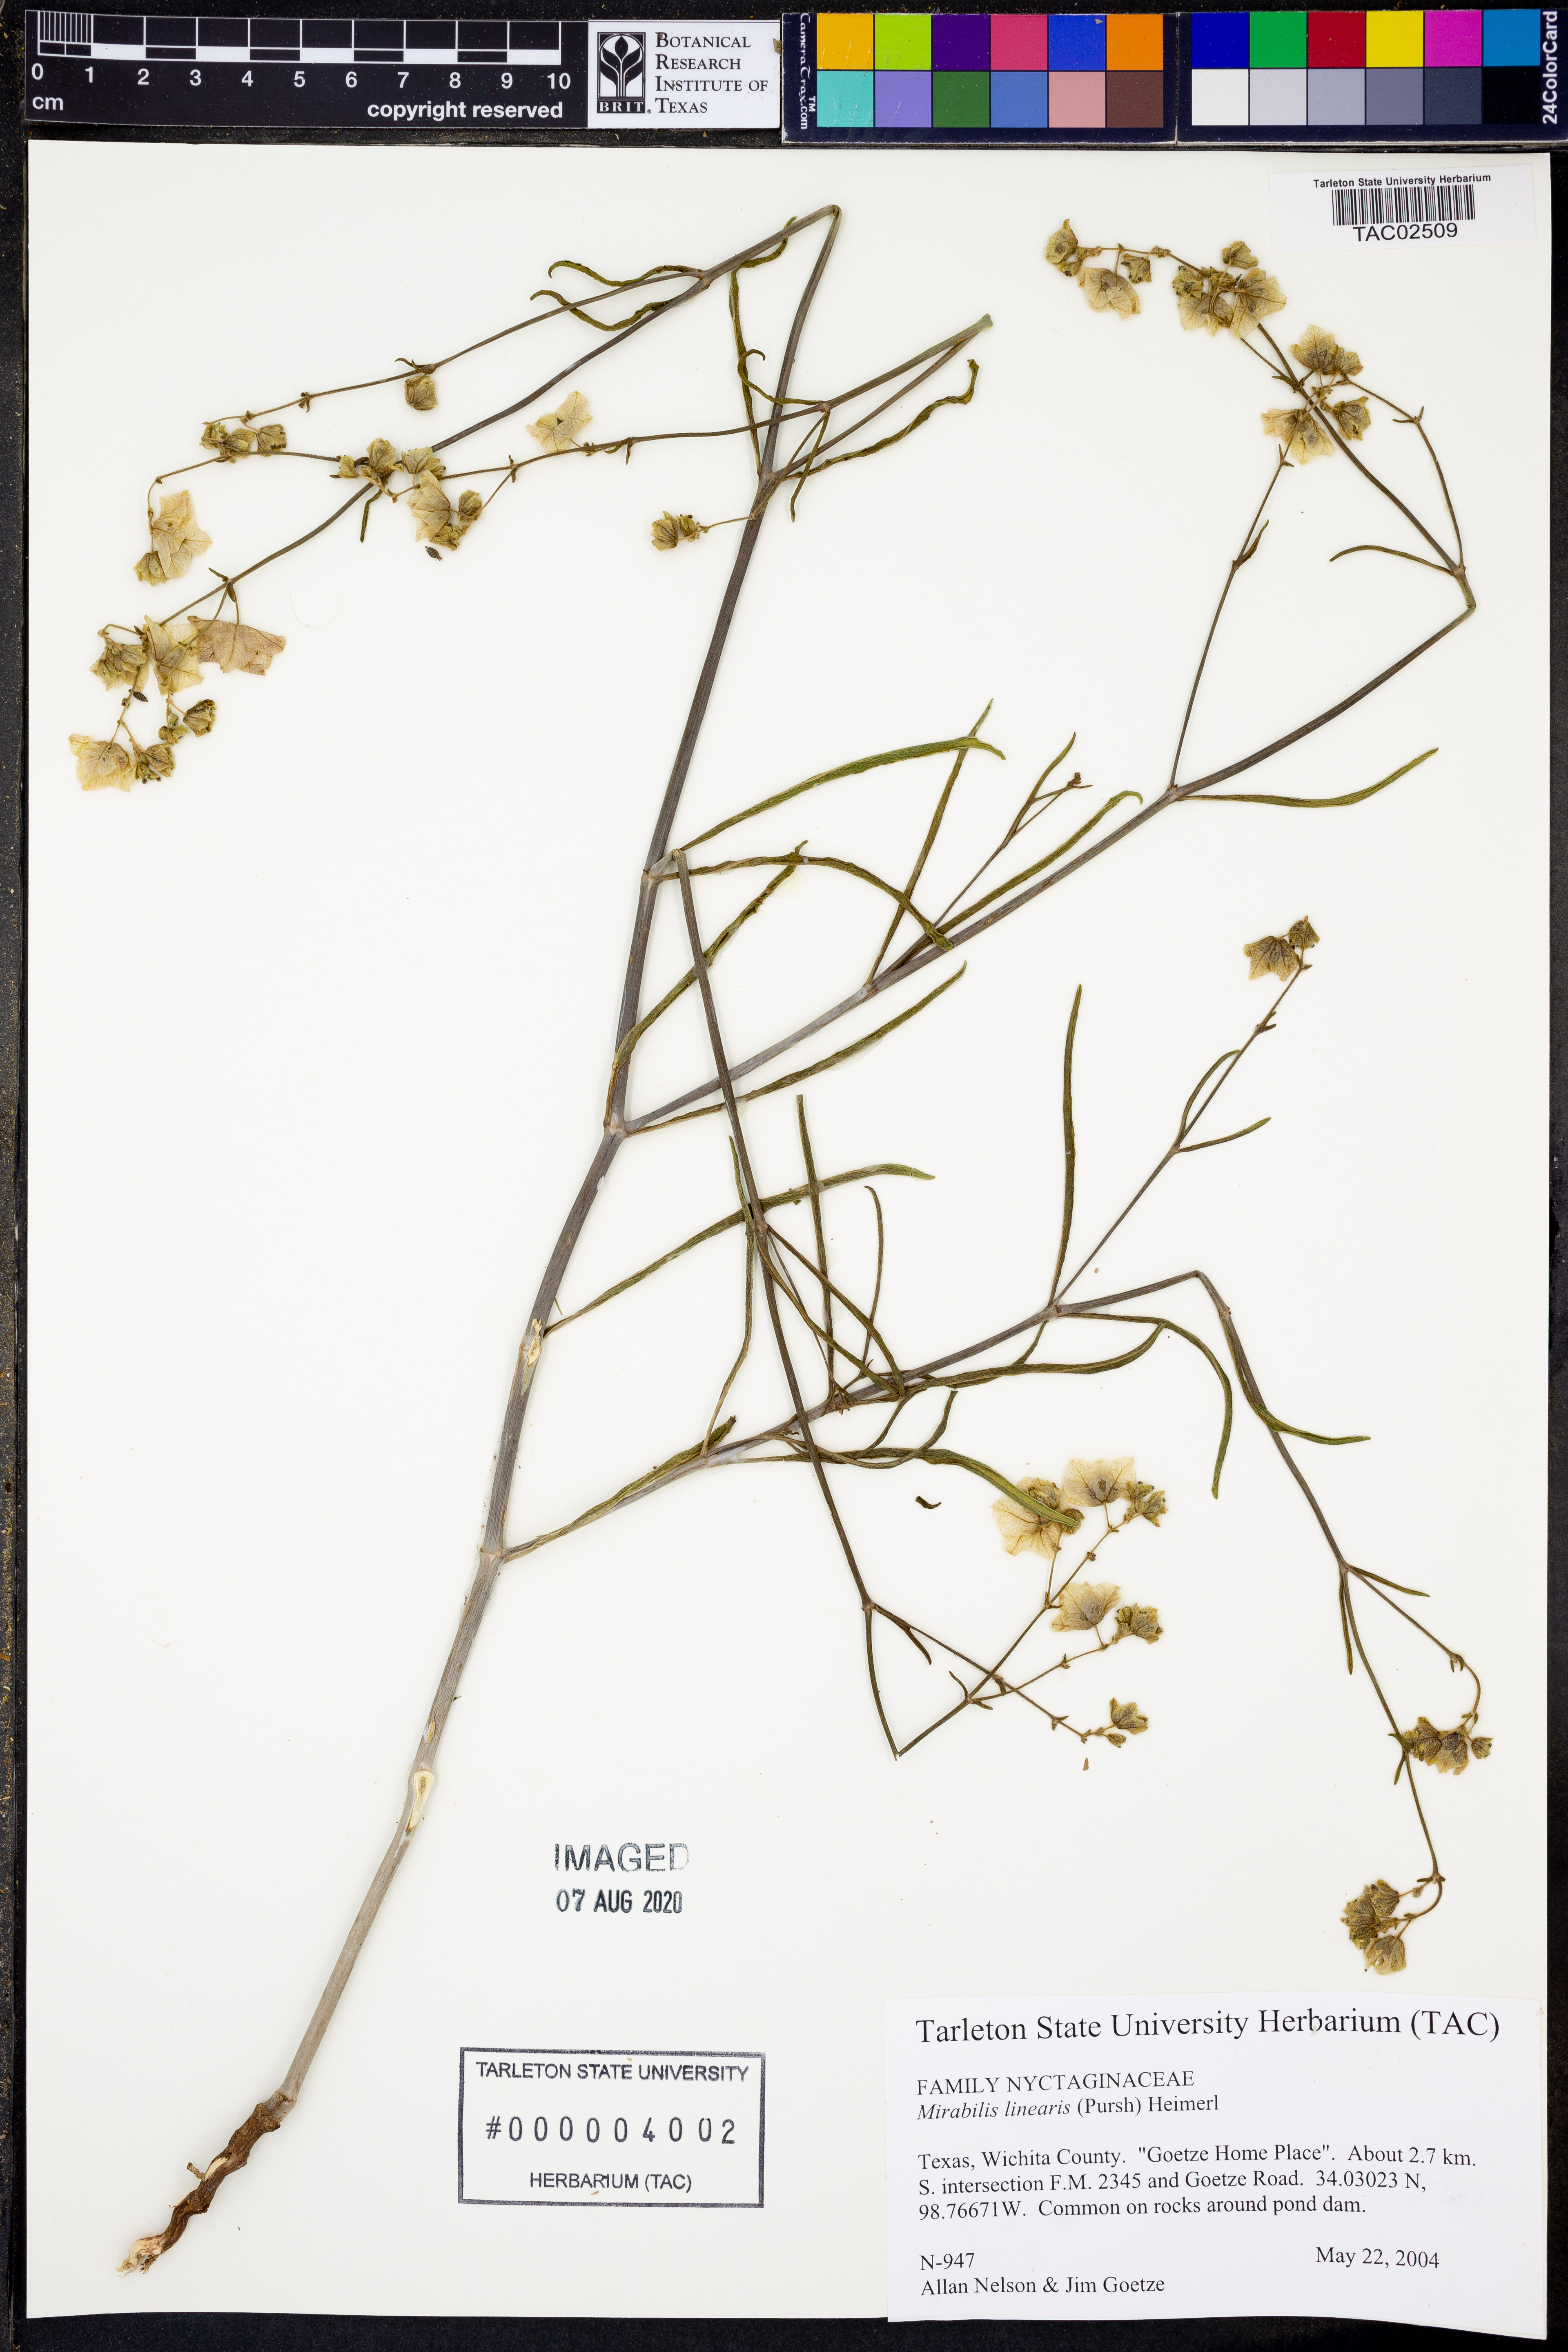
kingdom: Plantae
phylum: Tracheophyta
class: Magnoliopsida
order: Caryophyllales
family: Nyctaginaceae
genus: Mirabilis
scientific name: Mirabilis linearis
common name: Linear-leaved four-o'clock
